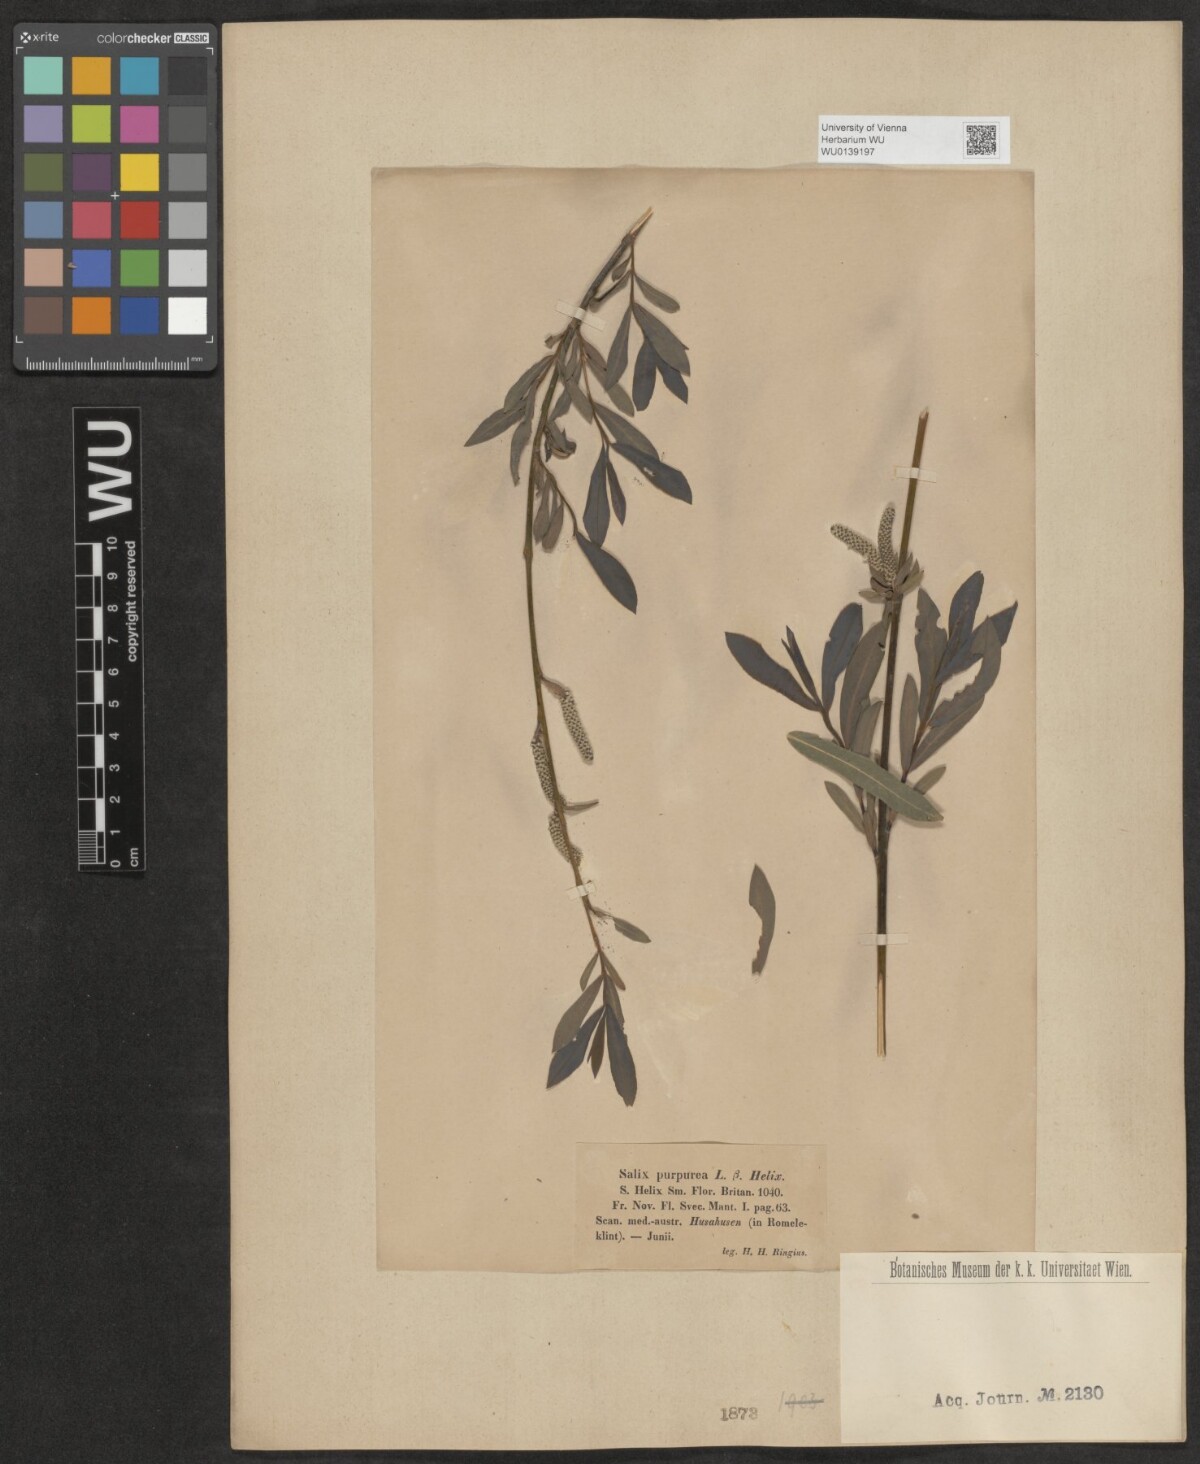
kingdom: Plantae
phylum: Tracheophyta
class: Magnoliopsida
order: Malpighiales
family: Salicaceae
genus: Salix
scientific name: Salix purpurea
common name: Purple willow
